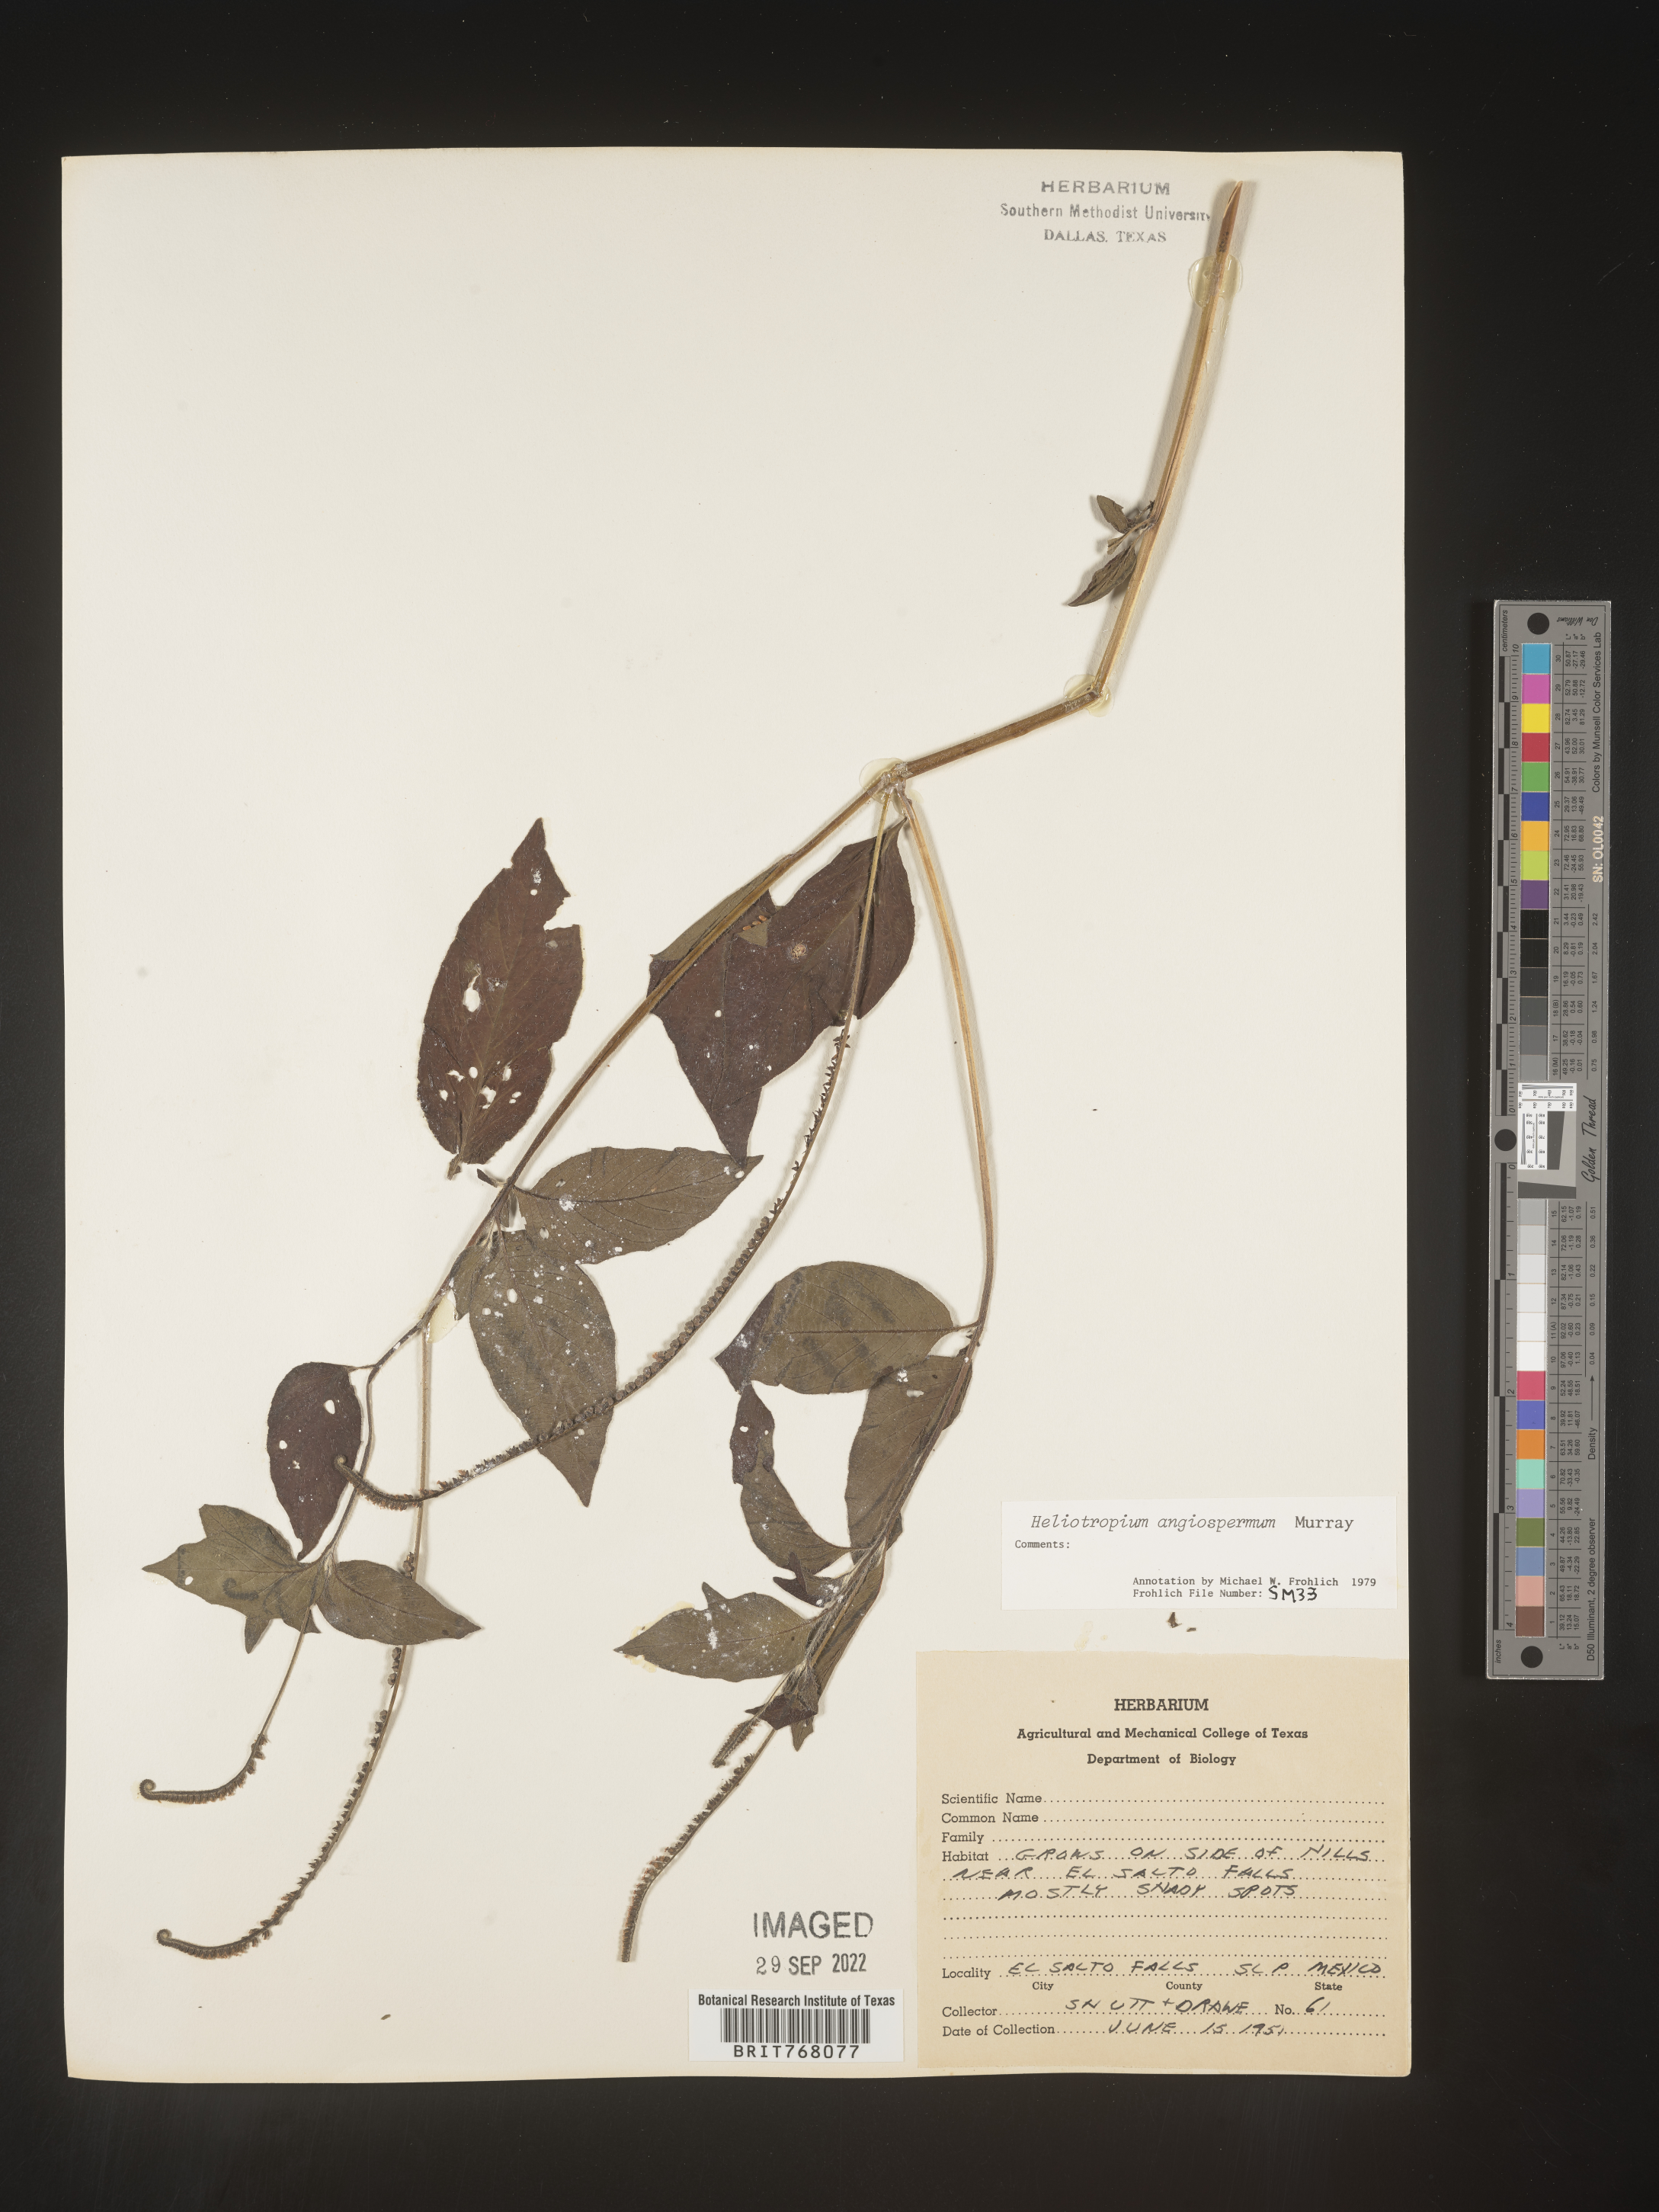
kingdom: Plantae
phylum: Tracheophyta
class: Magnoliopsida
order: Boraginales
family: Heliotropiaceae
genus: Heliotropium
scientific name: Heliotropium
